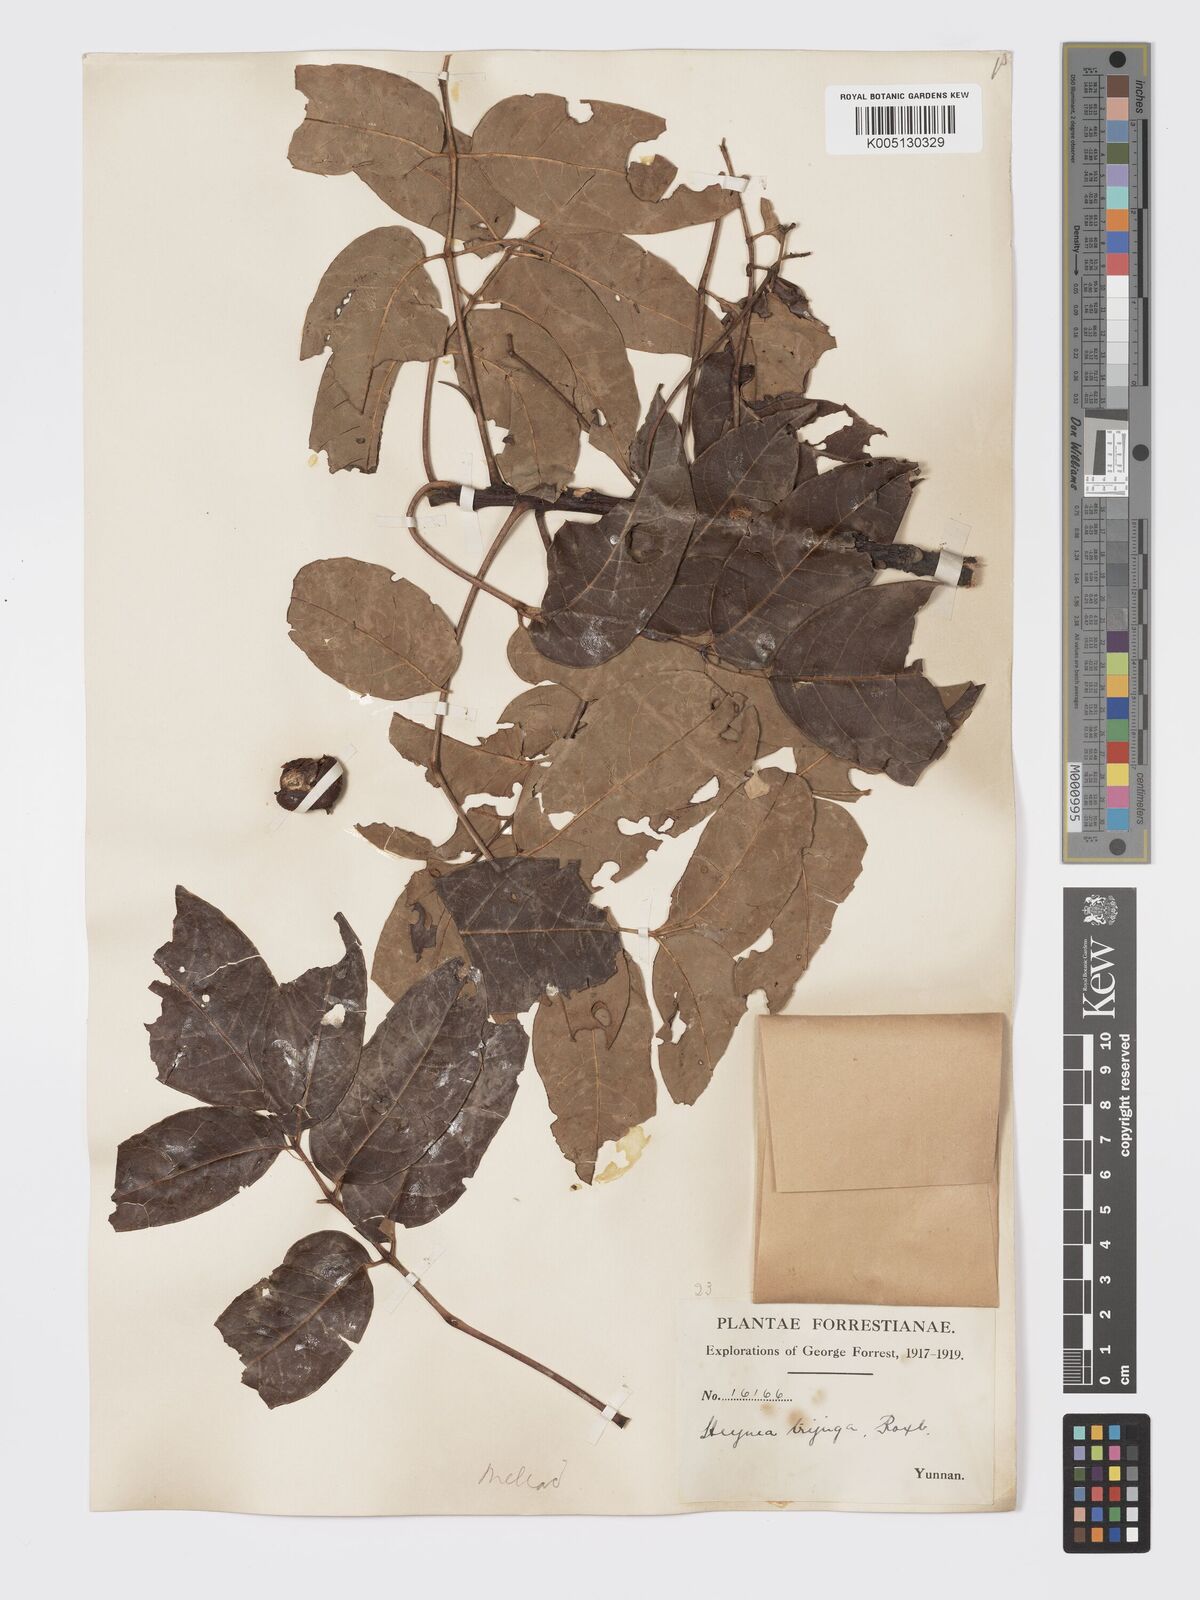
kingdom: Plantae
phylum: Tracheophyta
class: Magnoliopsida
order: Sapindales
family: Meliaceae
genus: Heynea
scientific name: Heynea trijuga
